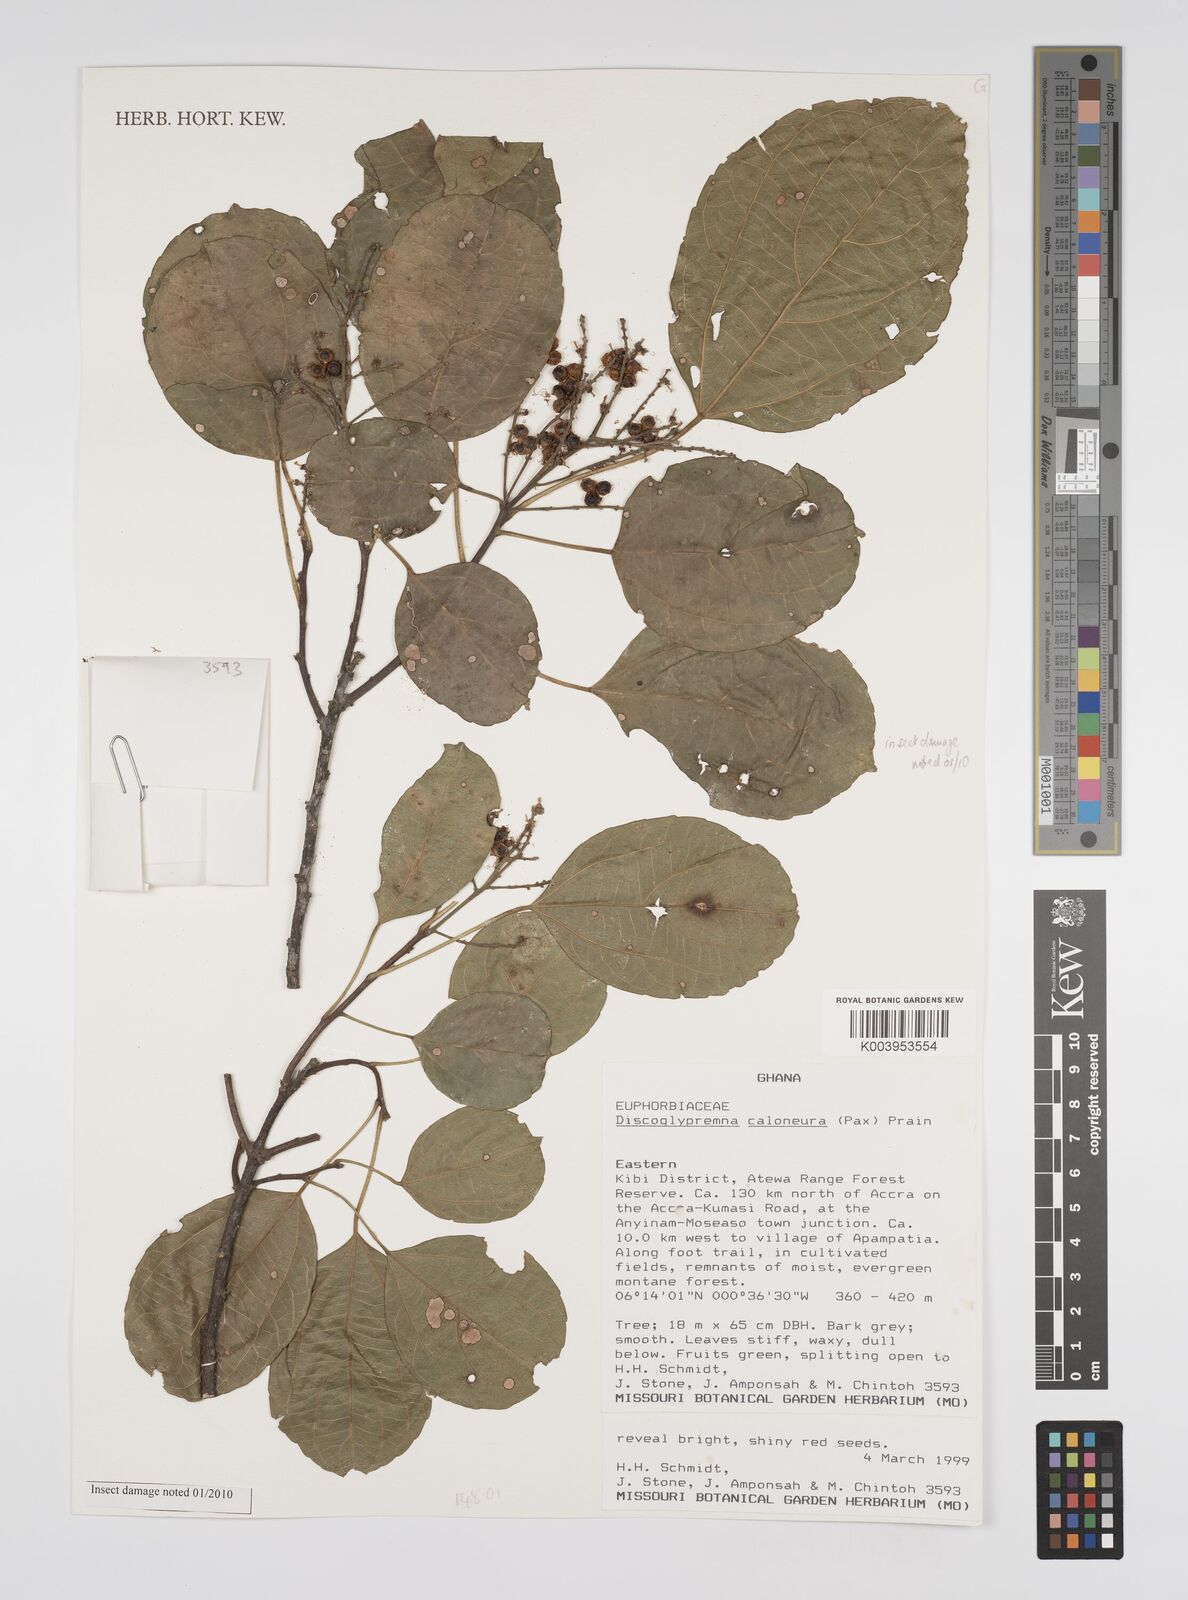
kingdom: Plantae
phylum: Tracheophyta
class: Magnoliopsida
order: Malpighiales
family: Euphorbiaceae
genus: Discoglypremna
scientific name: Discoglypremna caloneura
